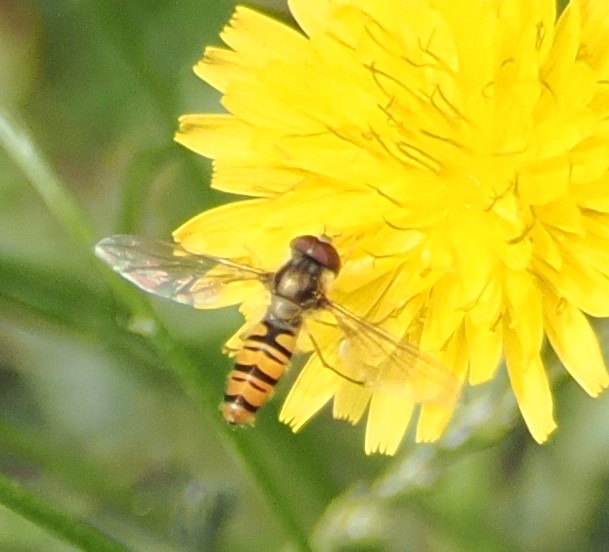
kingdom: Animalia
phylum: Arthropoda
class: Insecta
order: Diptera
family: Syrphidae
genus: Episyrphus
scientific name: Episyrphus balteatus
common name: Dobbeltbåndet svirreflue
